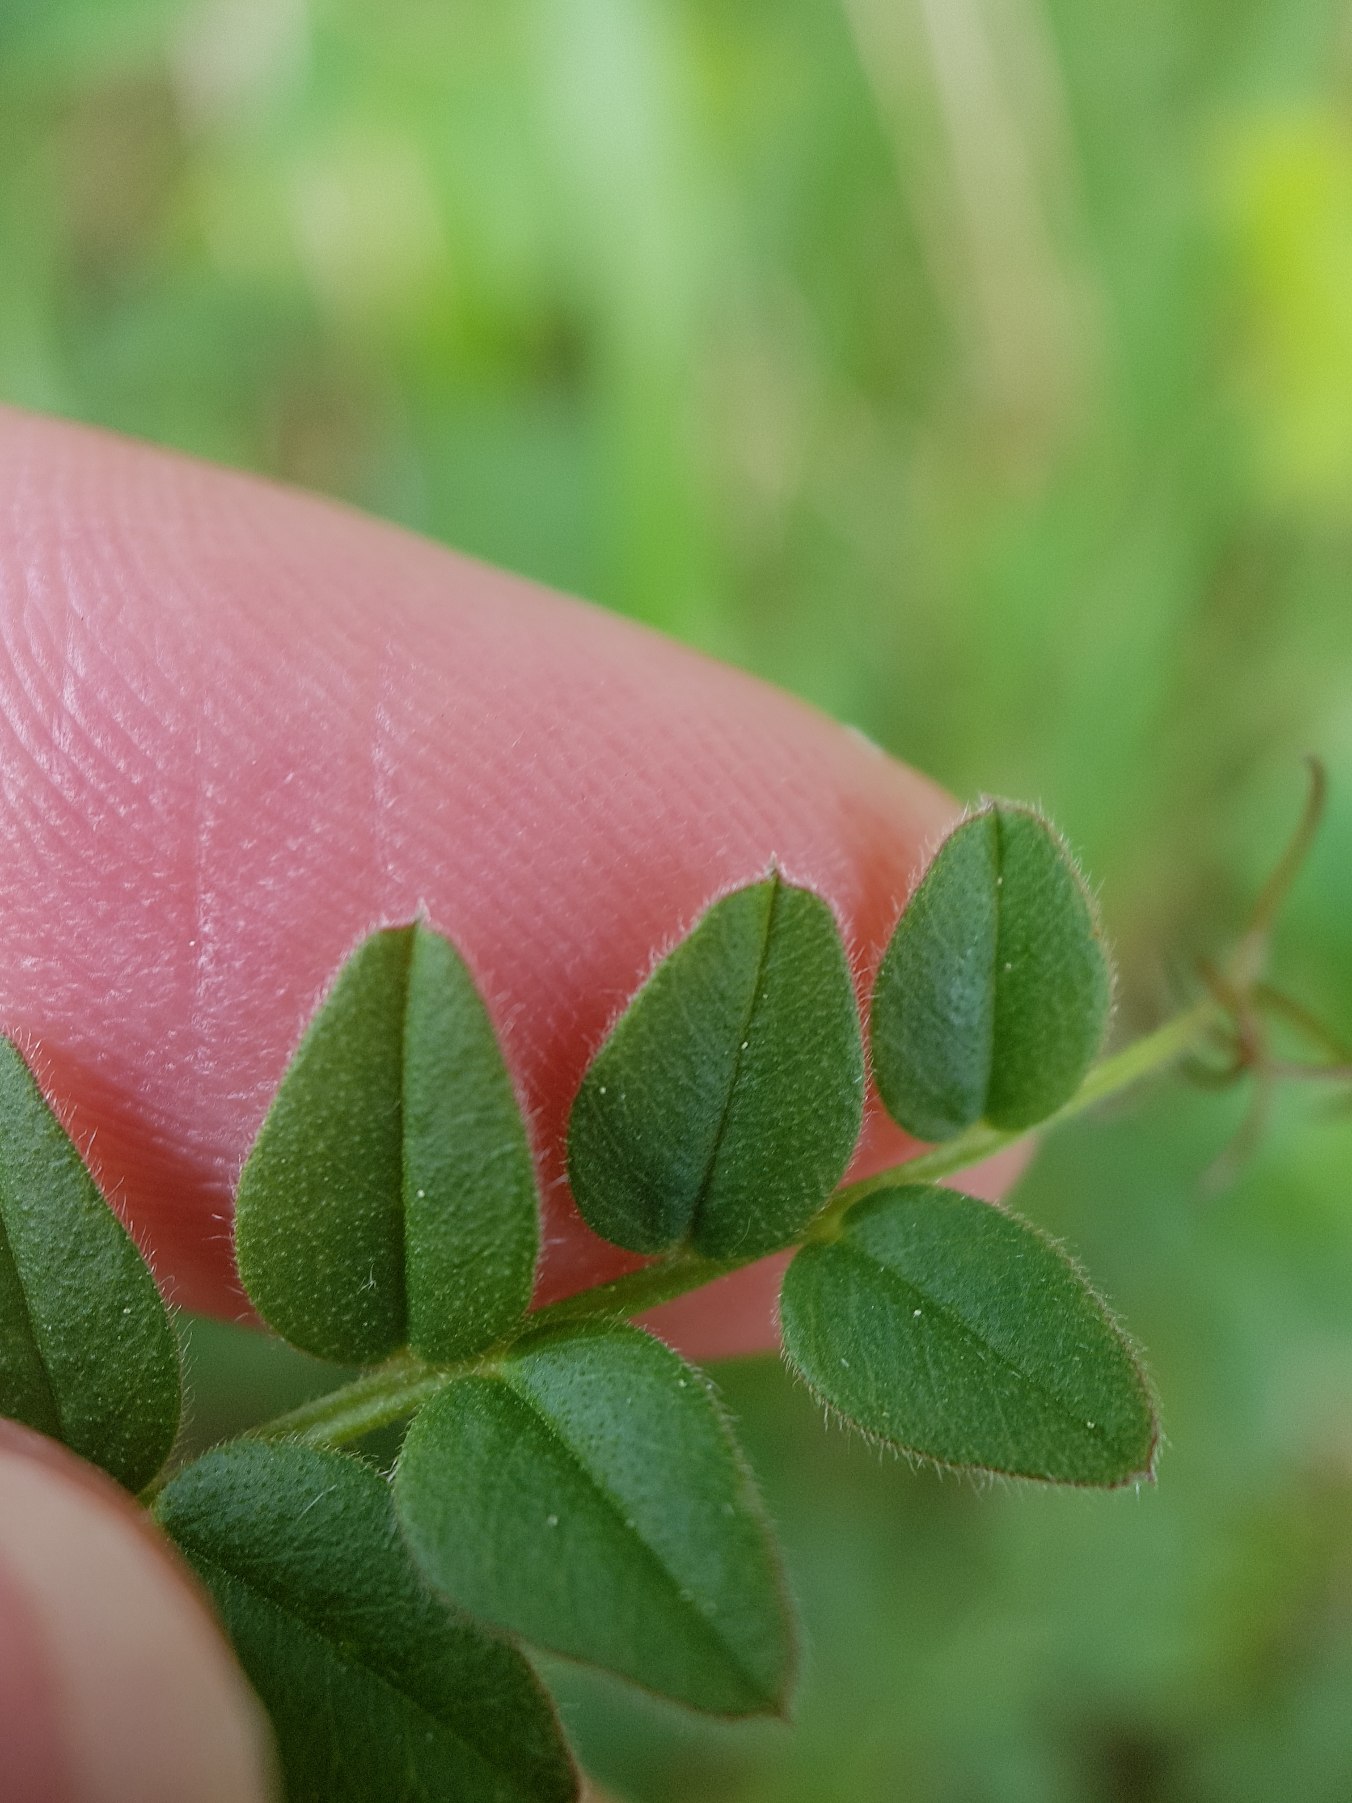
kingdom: Plantae
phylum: Tracheophyta
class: Magnoliopsida
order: Fabales
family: Fabaceae
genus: Vicia
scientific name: Vicia sepium
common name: Gærde-vikke
